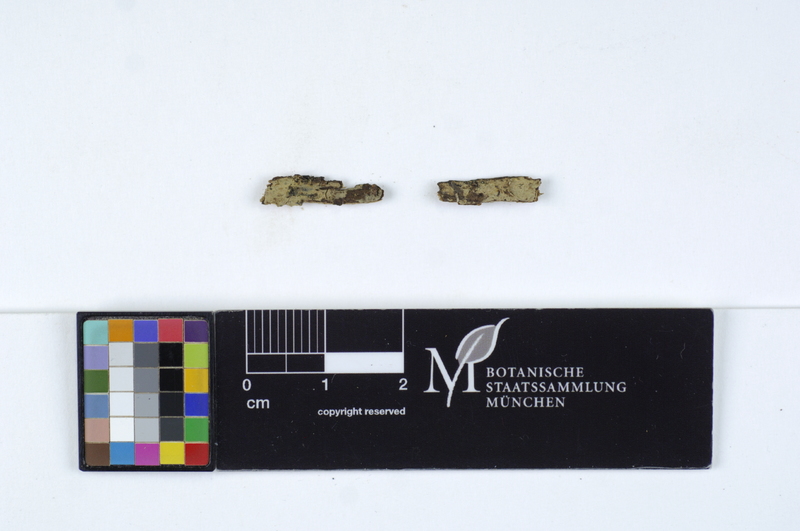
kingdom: Plantae
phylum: Tracheophyta
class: Pinopsida
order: Pinales
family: Pinaceae
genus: Larix
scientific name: Larix
